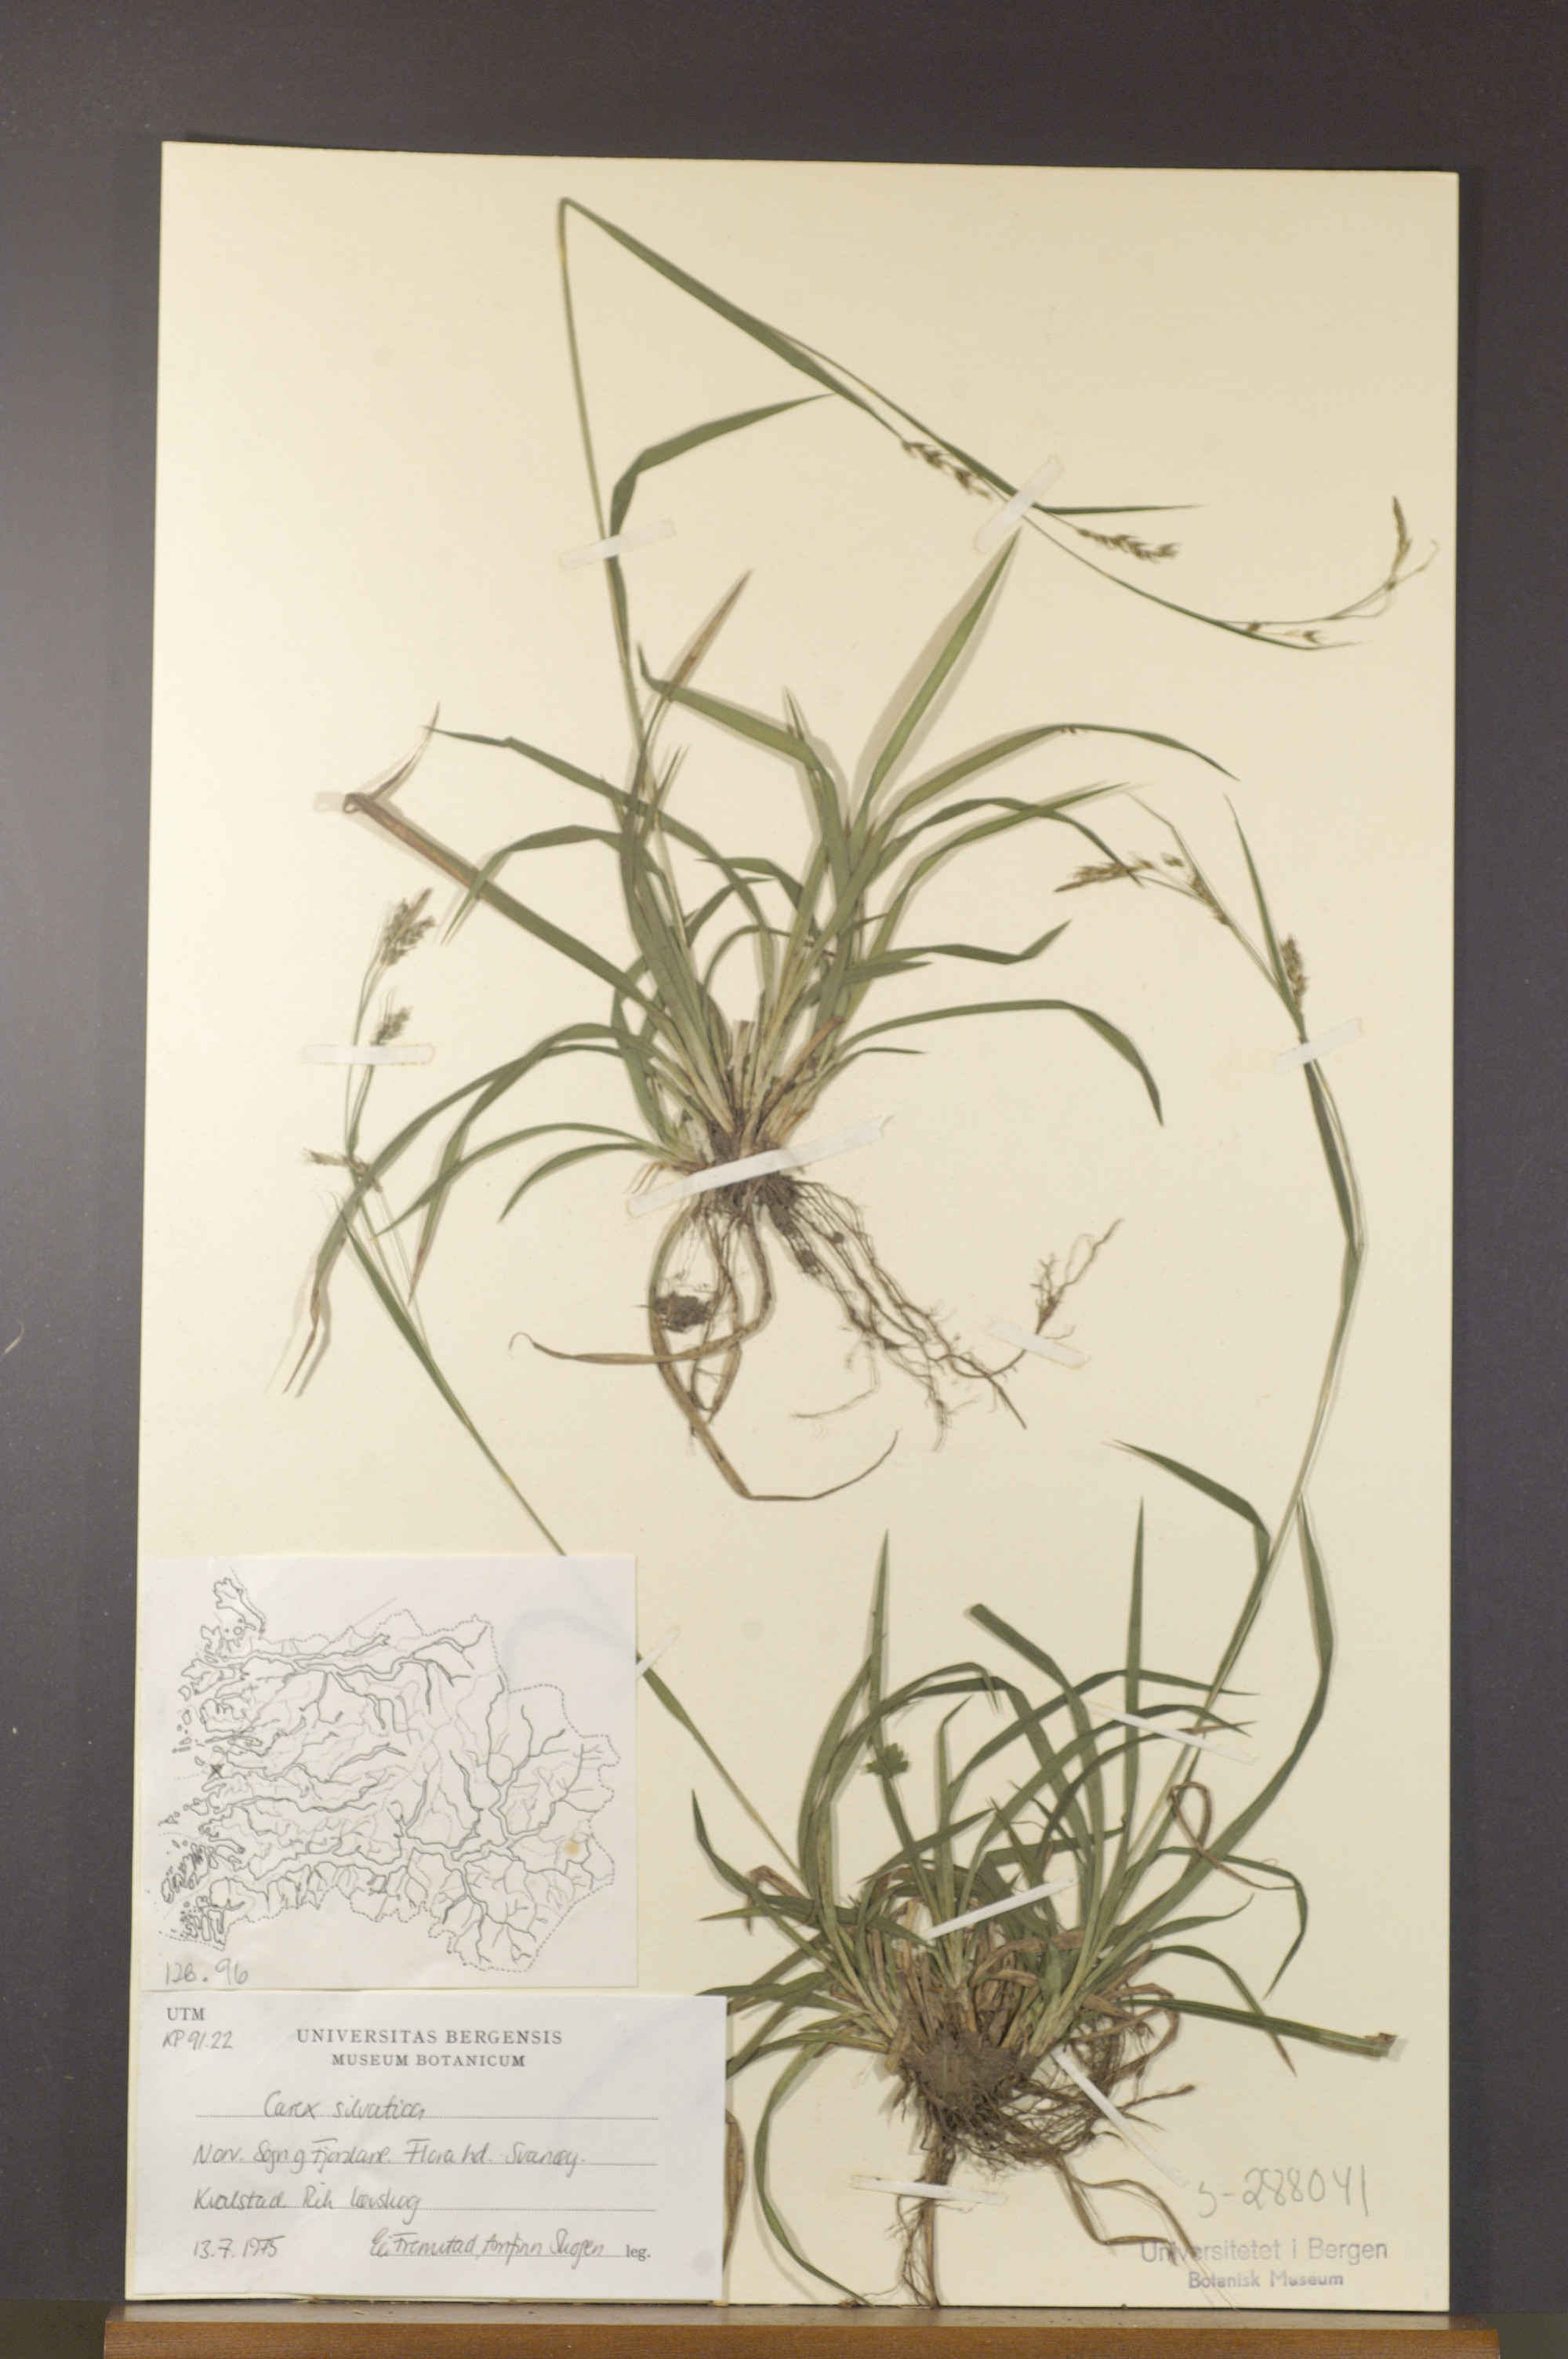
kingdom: Plantae
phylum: Tracheophyta
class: Liliopsida
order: Poales
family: Cyperaceae
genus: Carex
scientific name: Carex sylvatica
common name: Wood-sedge
